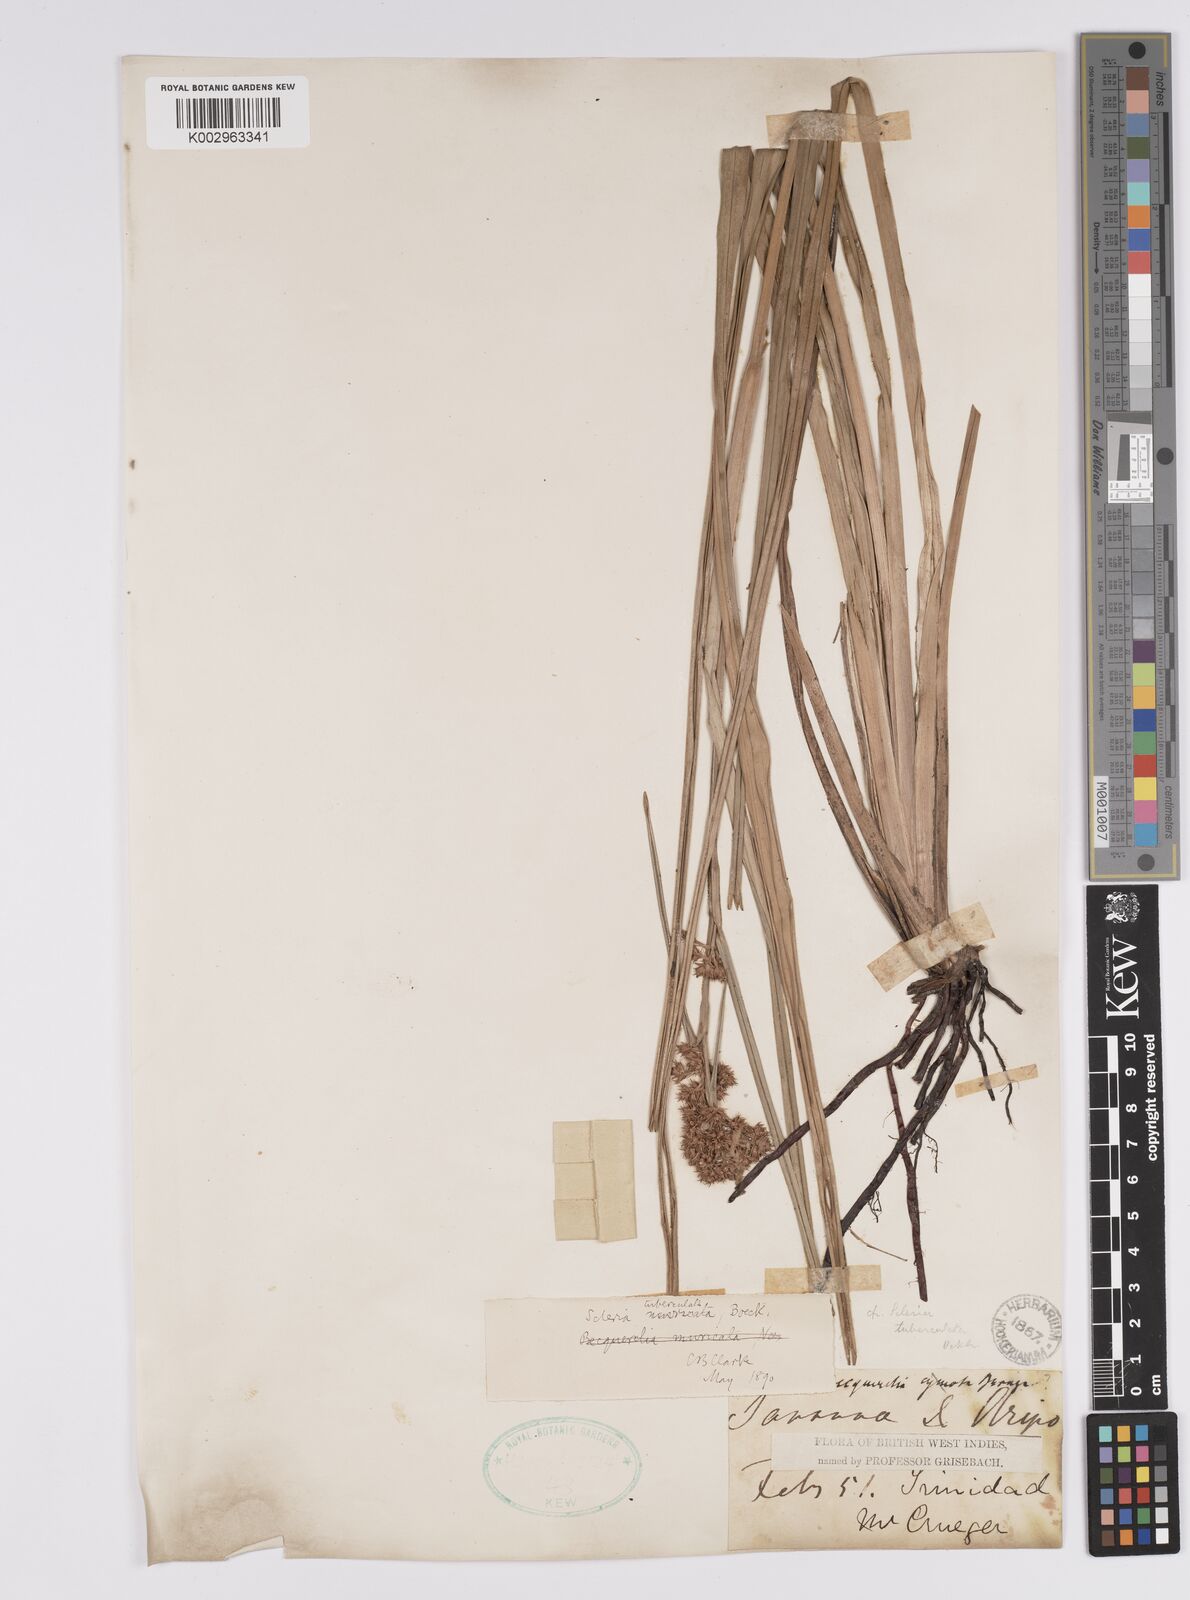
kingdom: Plantae
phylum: Tracheophyta
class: Liliopsida
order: Poales
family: Cyperaceae
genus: Becquerelia
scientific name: Becquerelia tuberculata
